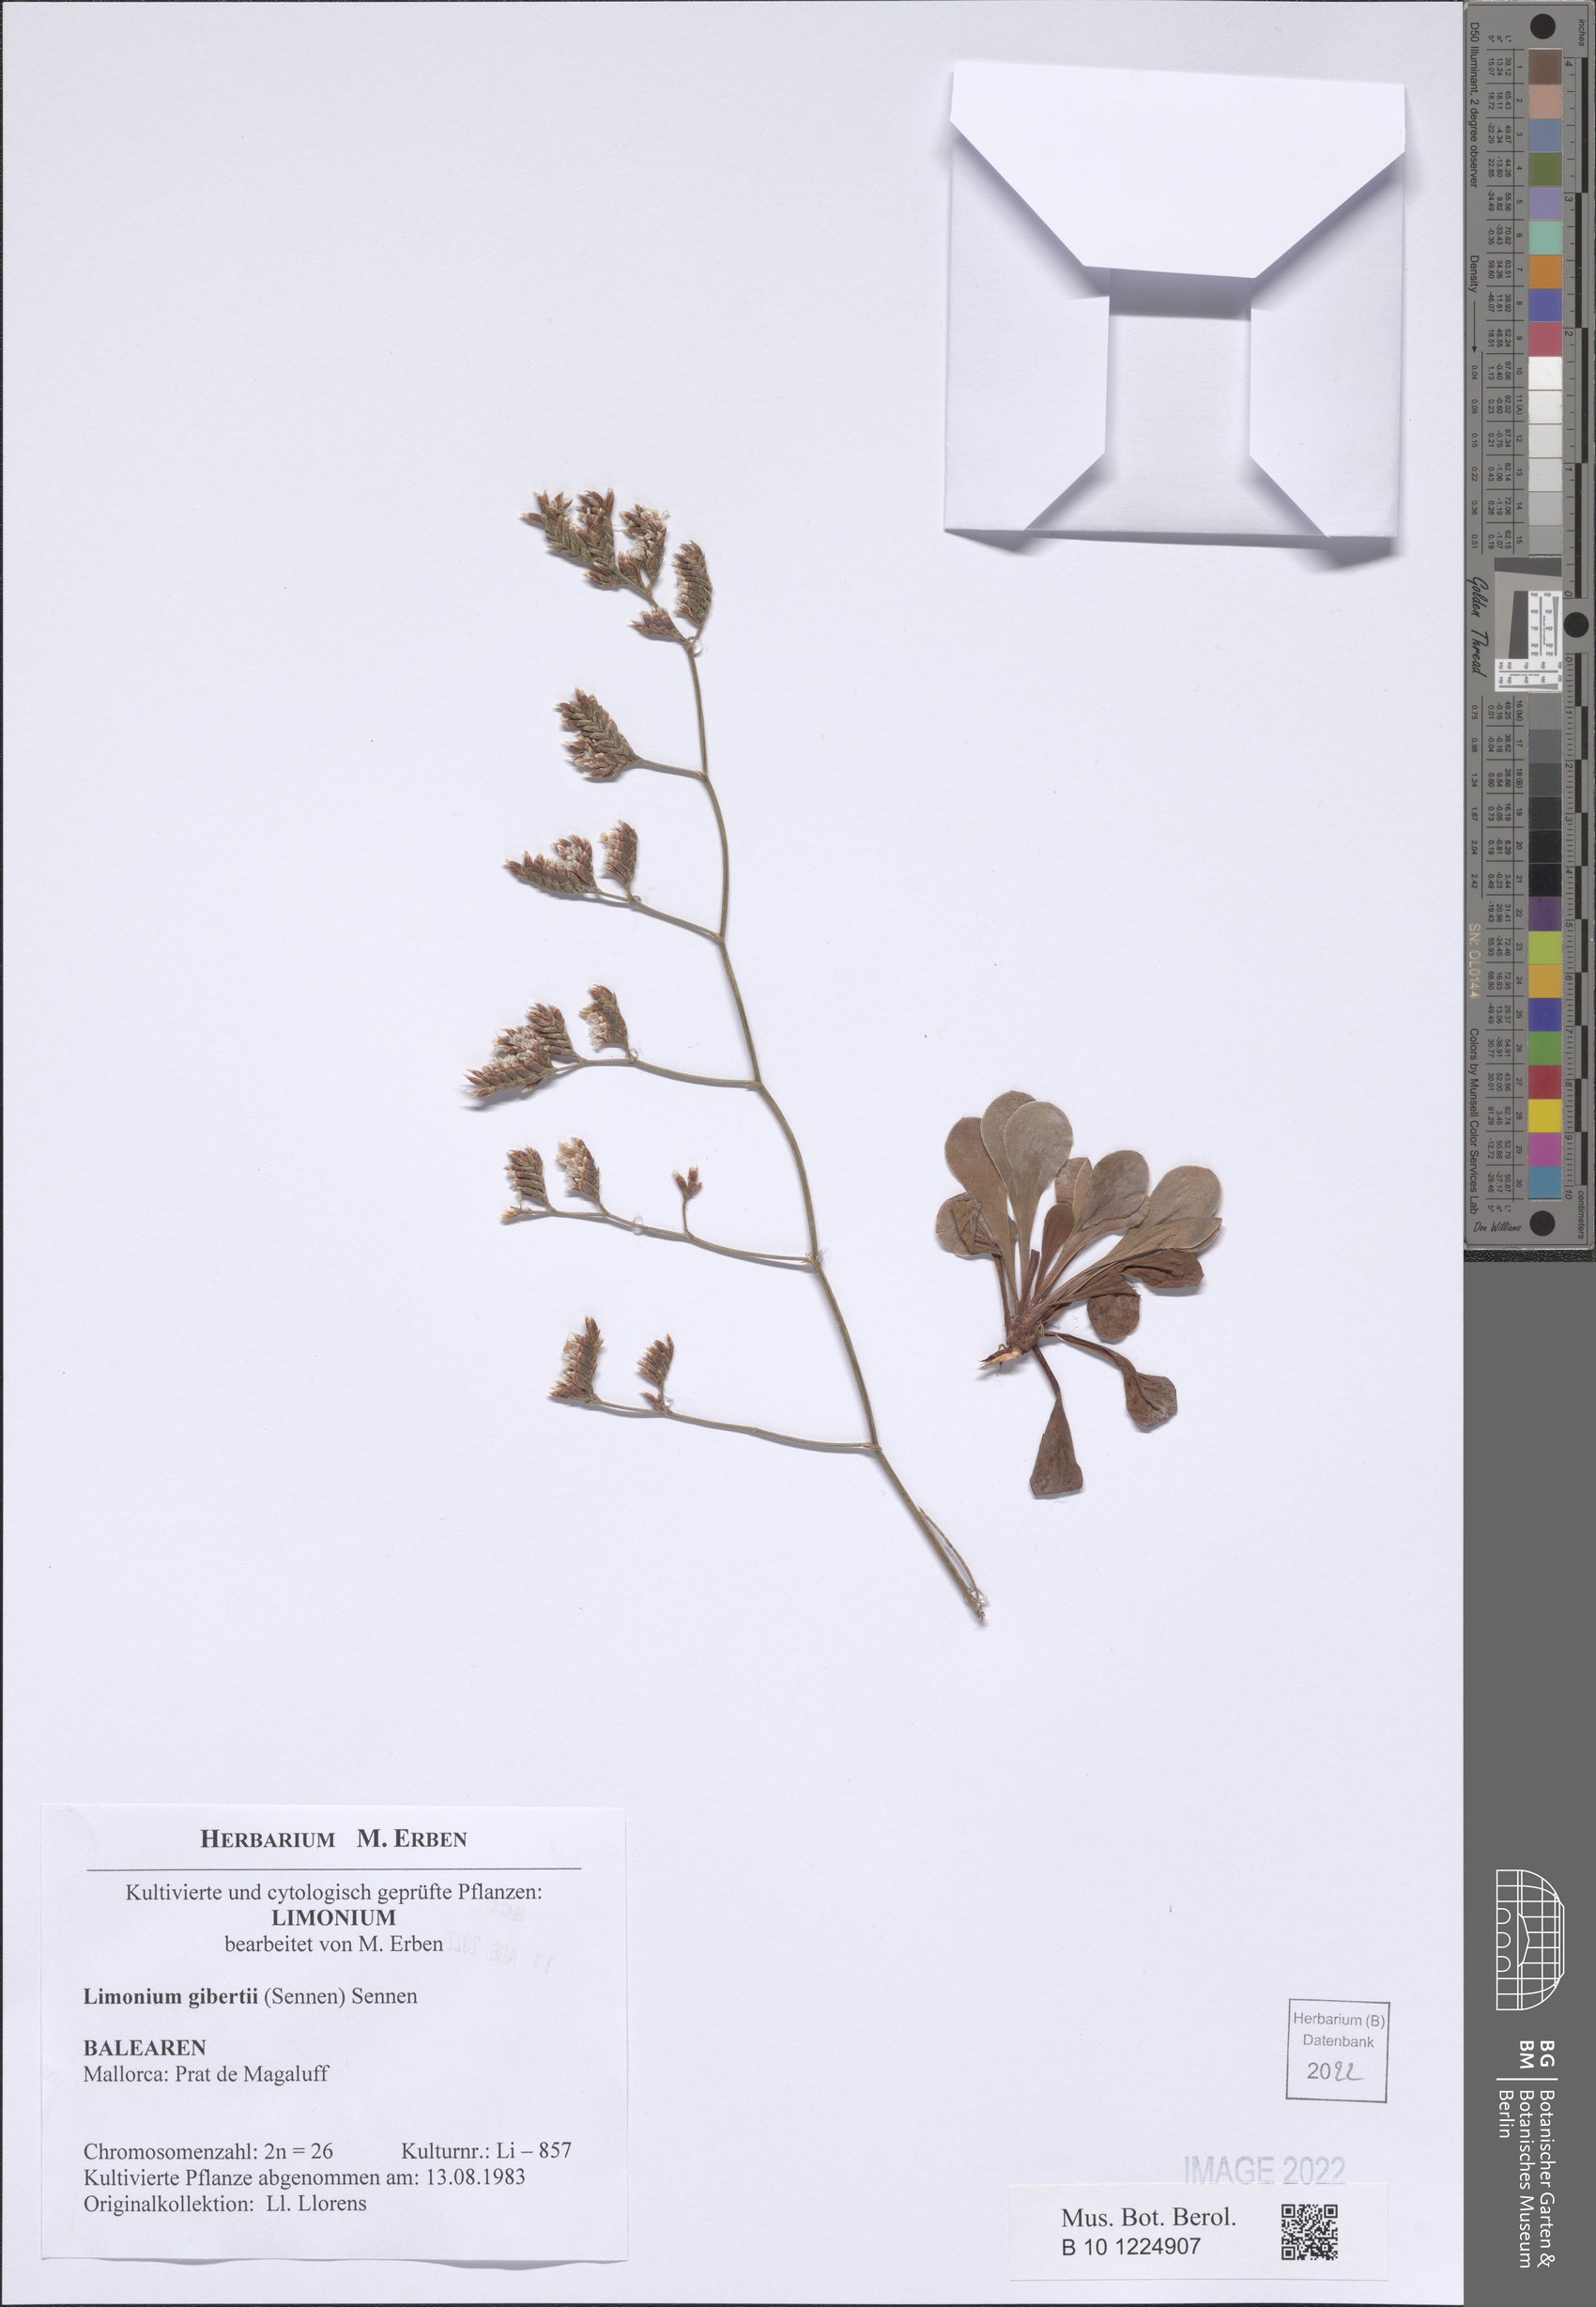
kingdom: Plantae
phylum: Tracheophyta
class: Magnoliopsida
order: Caryophyllales
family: Plumbaginaceae
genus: Limonium
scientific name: Limonium gibertii
